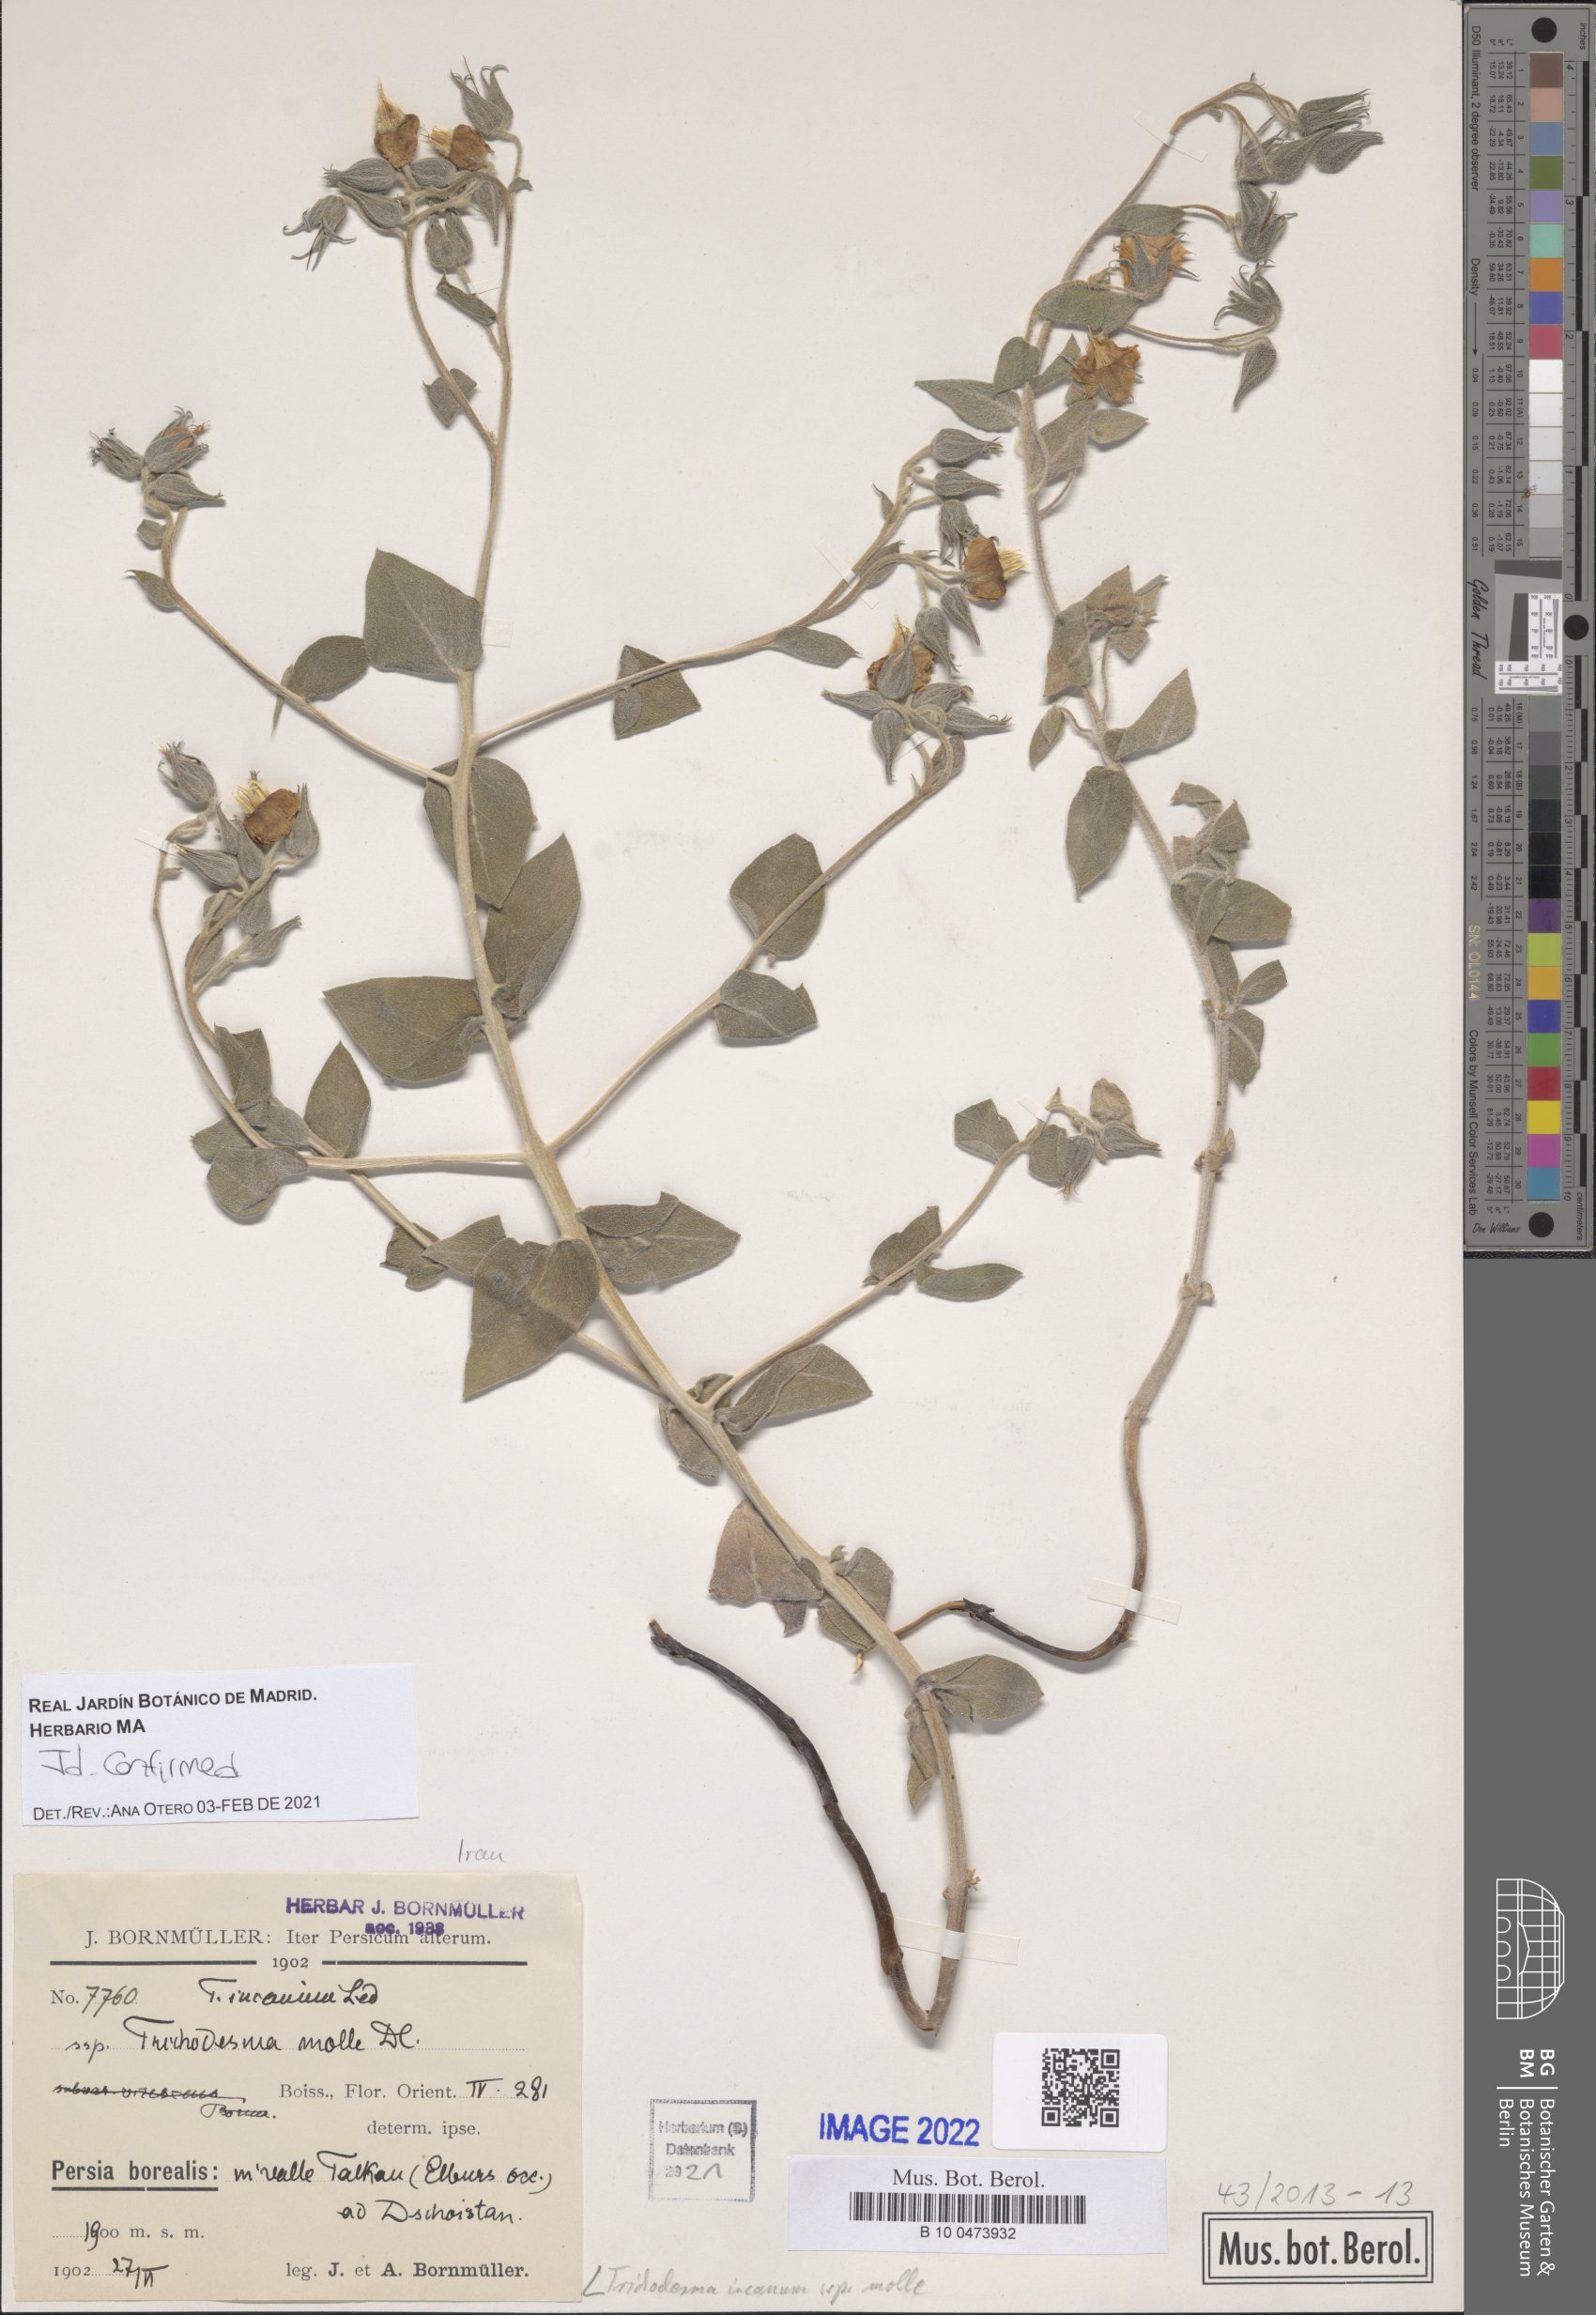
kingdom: Plantae
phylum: Tracheophyta
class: Magnoliopsida
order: Boraginales
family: Boraginaceae
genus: Trichodesma
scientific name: Trichodesma incanum
